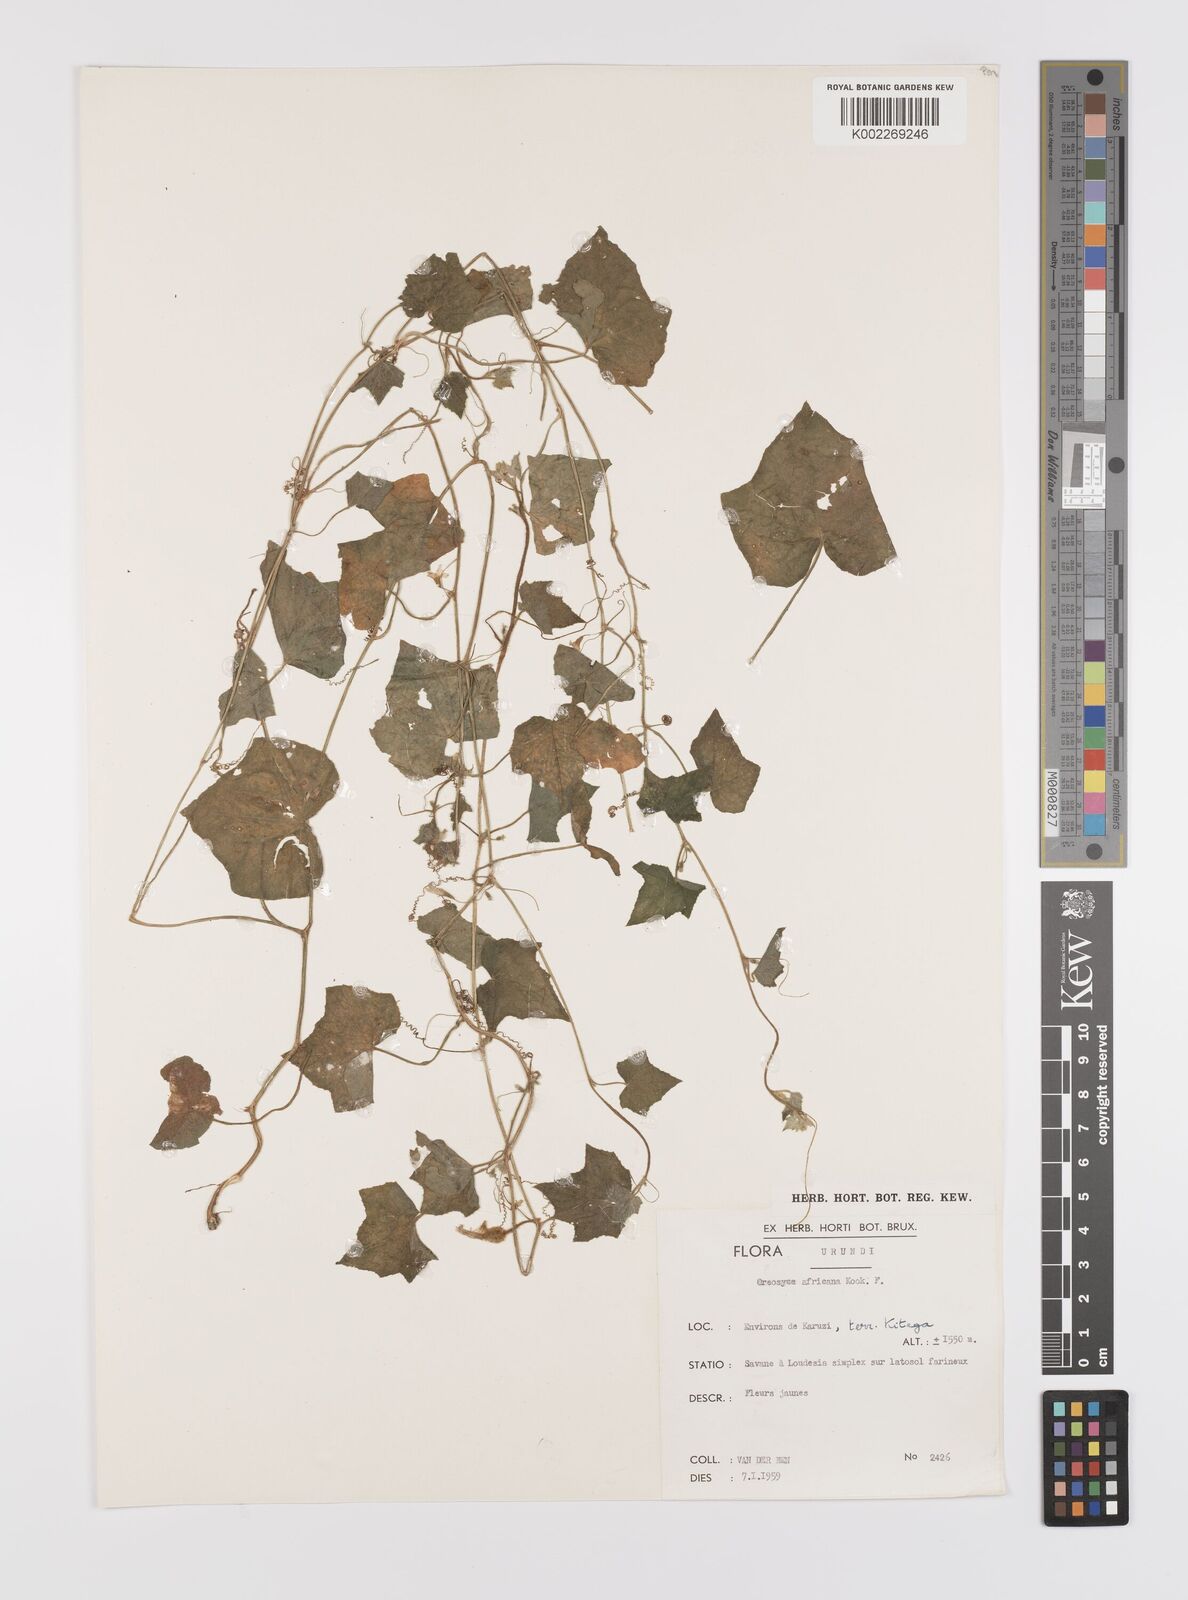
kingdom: Plantae
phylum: Tracheophyta
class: Magnoliopsida
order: Cucurbitales
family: Cucurbitaceae
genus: Cucumis
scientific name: Cucumis oreosyce
